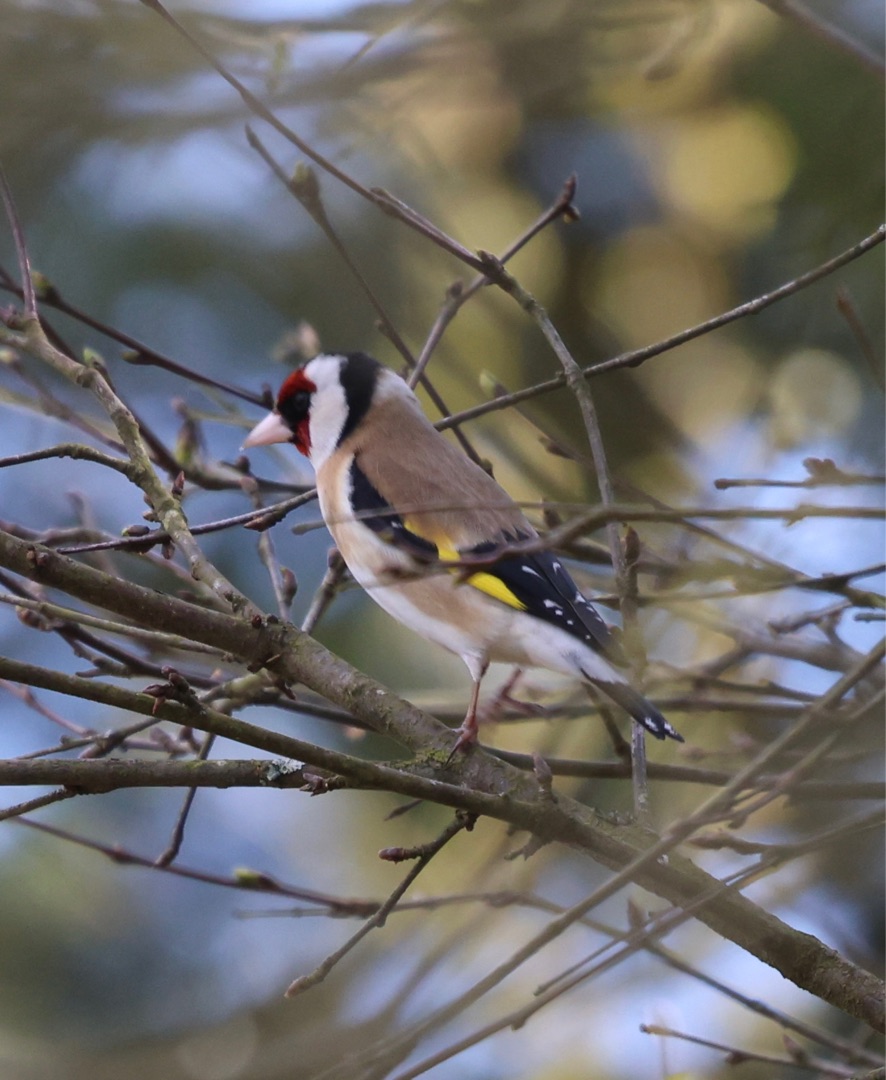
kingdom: Animalia
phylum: Chordata
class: Aves
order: Passeriformes
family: Fringillidae
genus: Carduelis
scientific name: Carduelis carduelis
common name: Stillits
